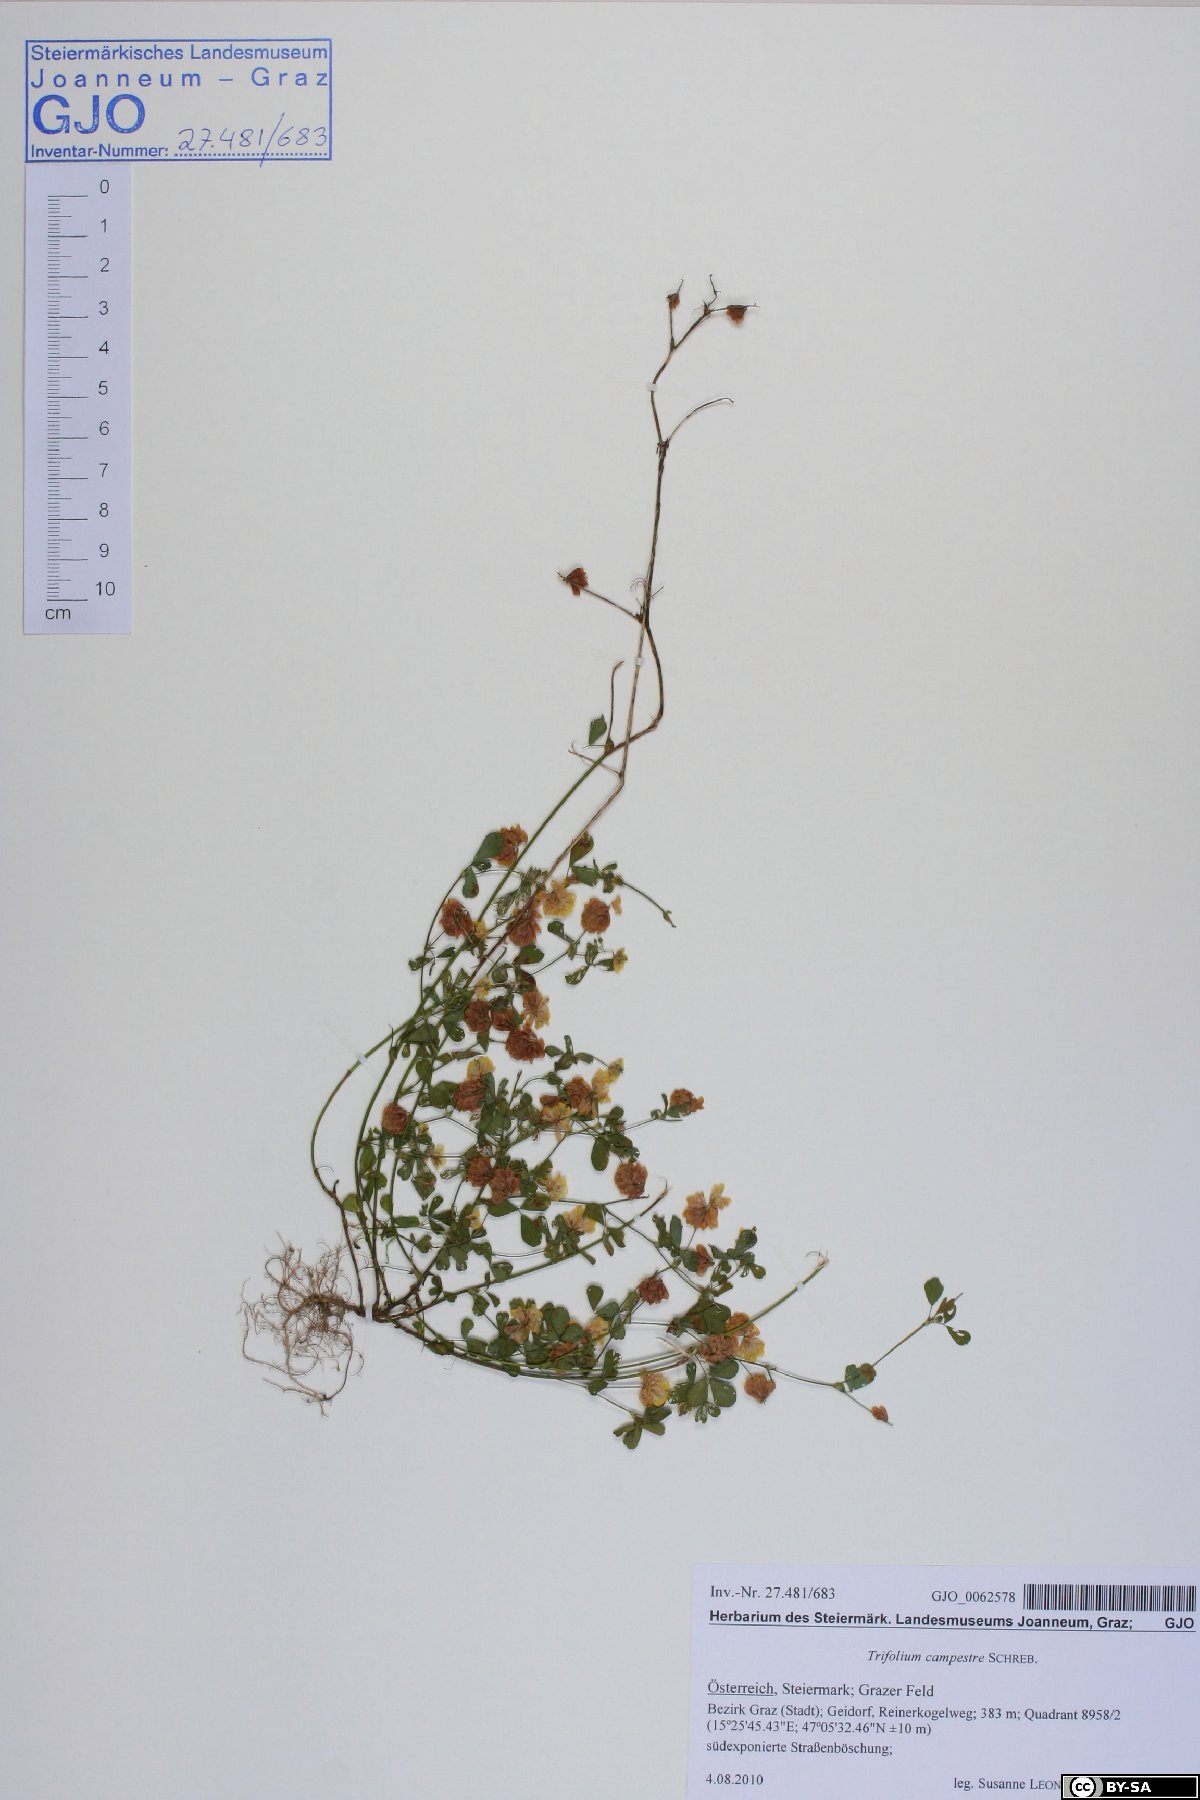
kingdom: Plantae
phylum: Tracheophyta
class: Magnoliopsida
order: Fabales
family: Fabaceae
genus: Trifolium
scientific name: Trifolium campestre
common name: Field clover
